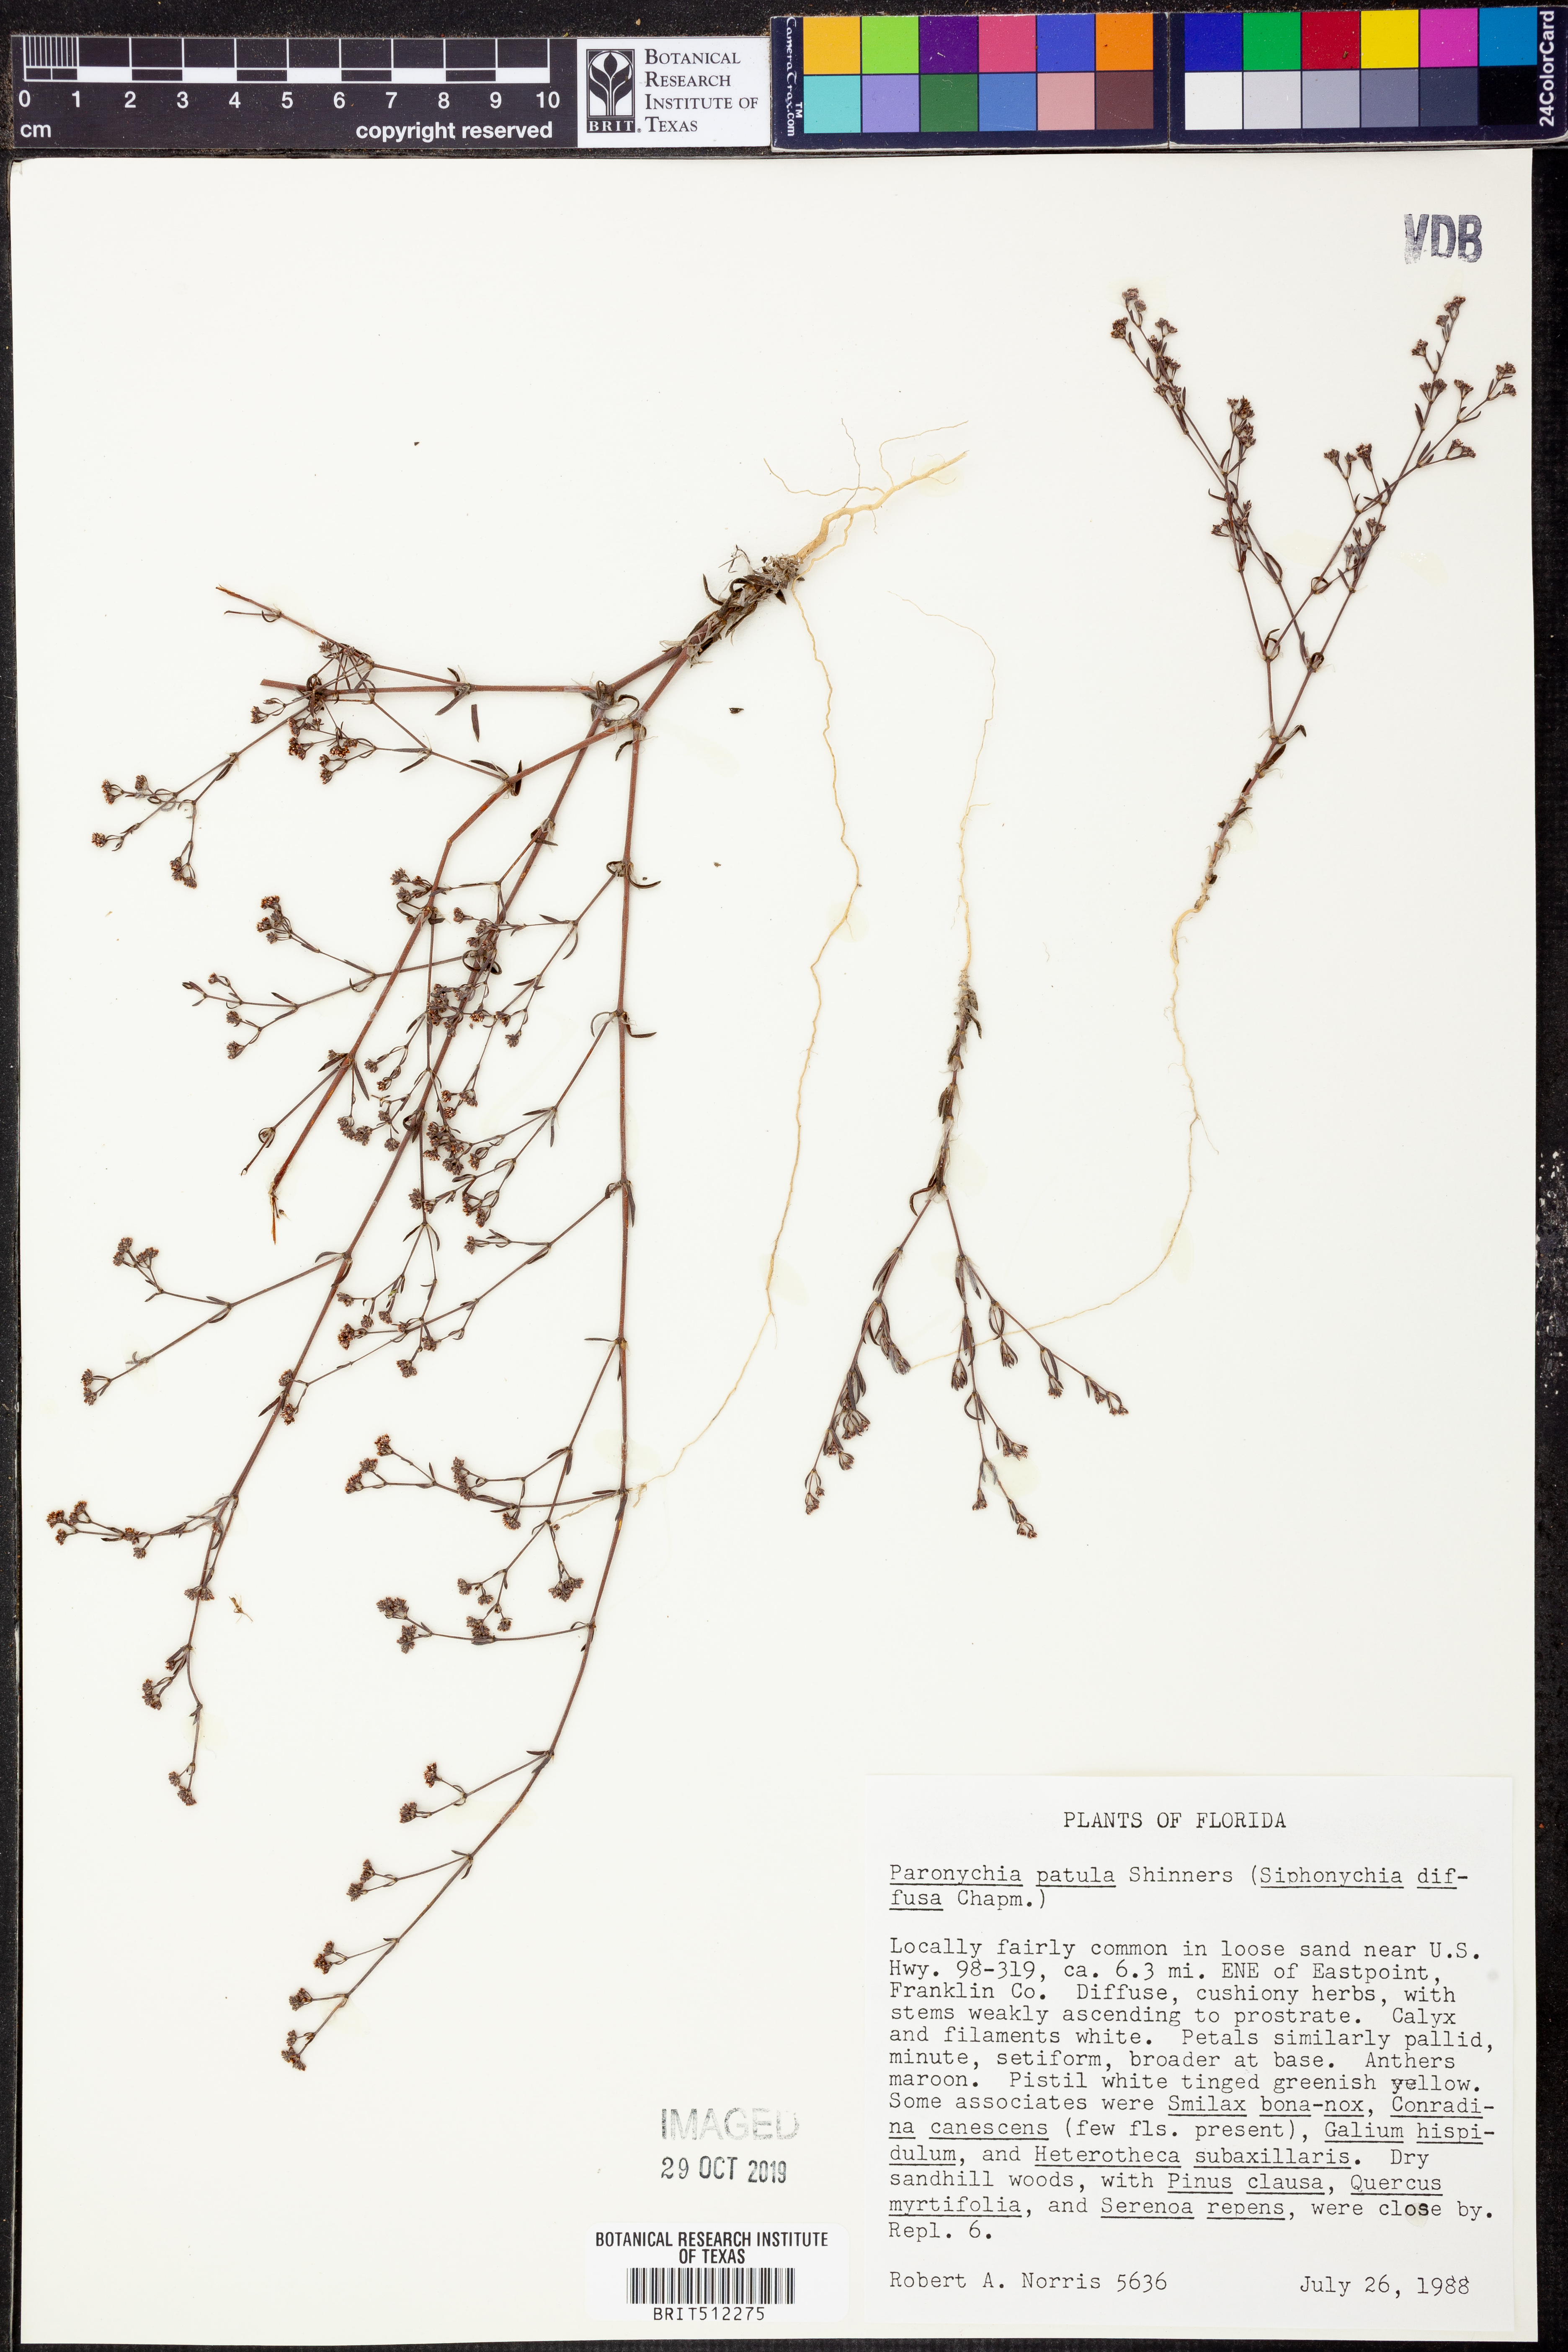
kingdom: Plantae
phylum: Tracheophyta
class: Magnoliopsida
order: Caryophyllales
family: Caryophyllaceae
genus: Paronychia
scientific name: Paronychia patula
